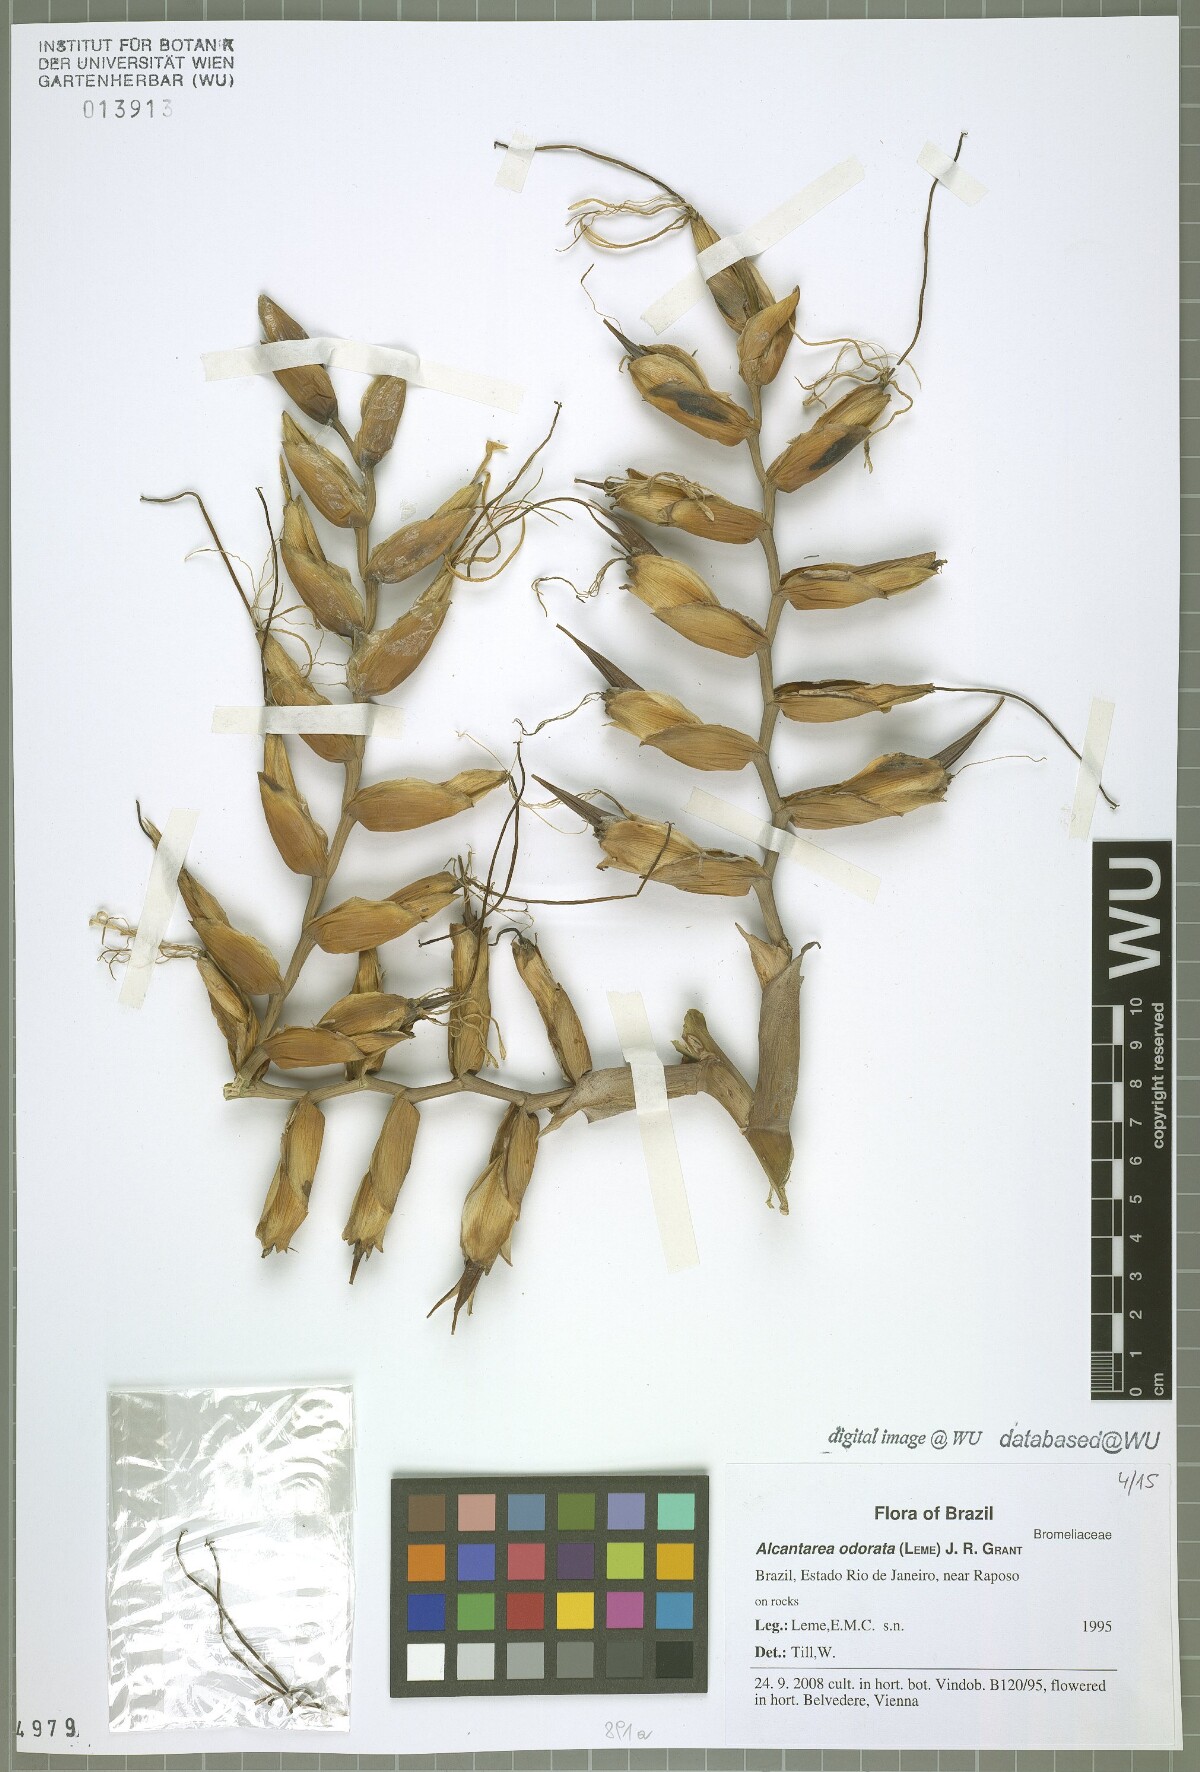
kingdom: Plantae
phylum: Tracheophyta
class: Liliopsida
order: Poales
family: Bromeliaceae
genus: Alcantarea
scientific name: Alcantarea odorata
